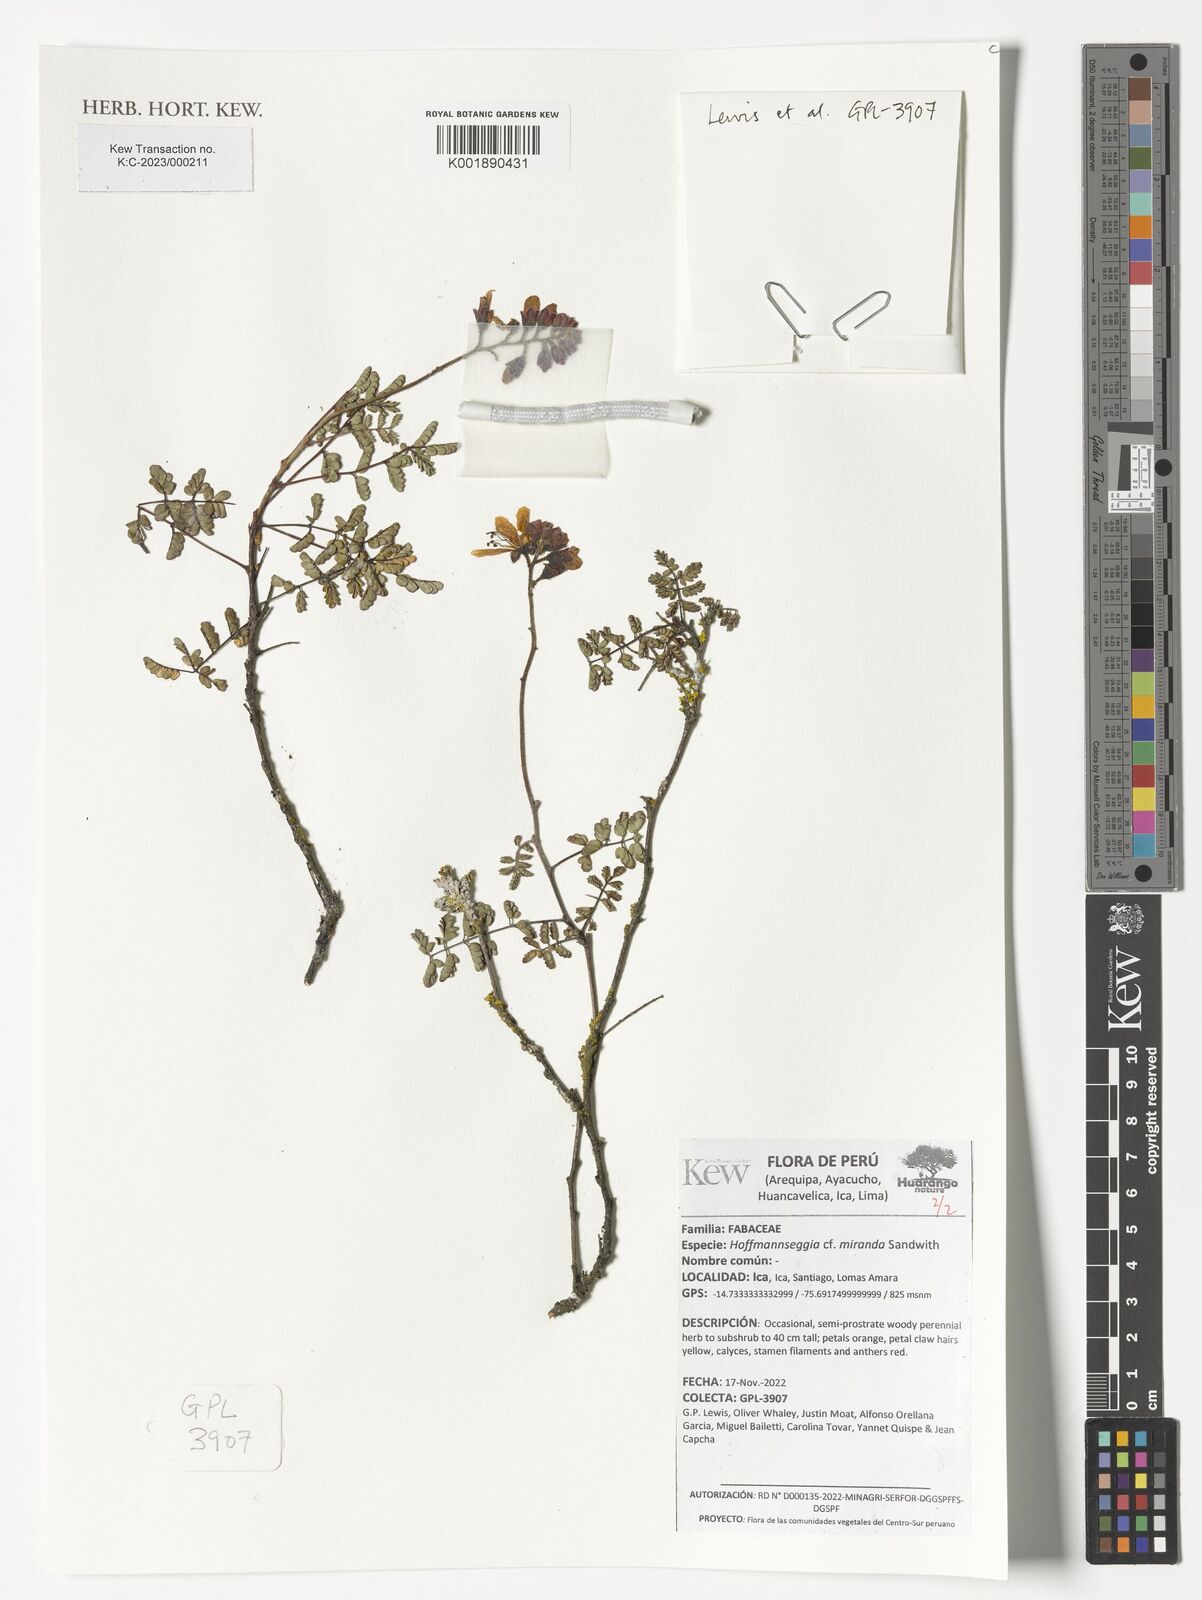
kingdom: Plantae
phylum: Tracheophyta
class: Magnoliopsida
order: Fabales
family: Fabaceae
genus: Hoffmannseggia
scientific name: Hoffmannseggia miranda
